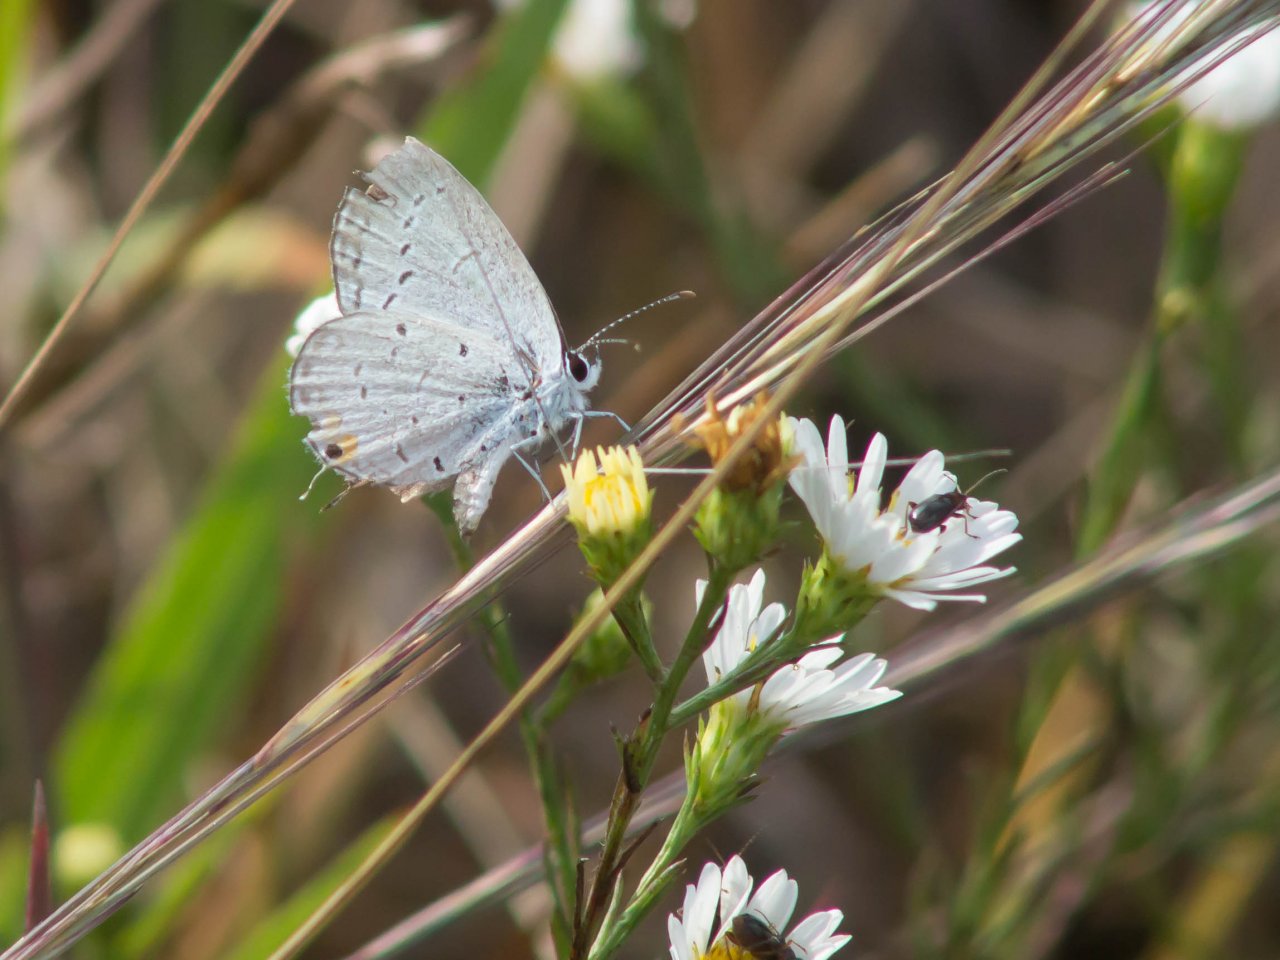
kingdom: Animalia
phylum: Arthropoda
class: Insecta
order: Lepidoptera
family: Lycaenidae
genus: Elkalyce
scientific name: Elkalyce comyntas
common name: Eastern Tailed-Blue
